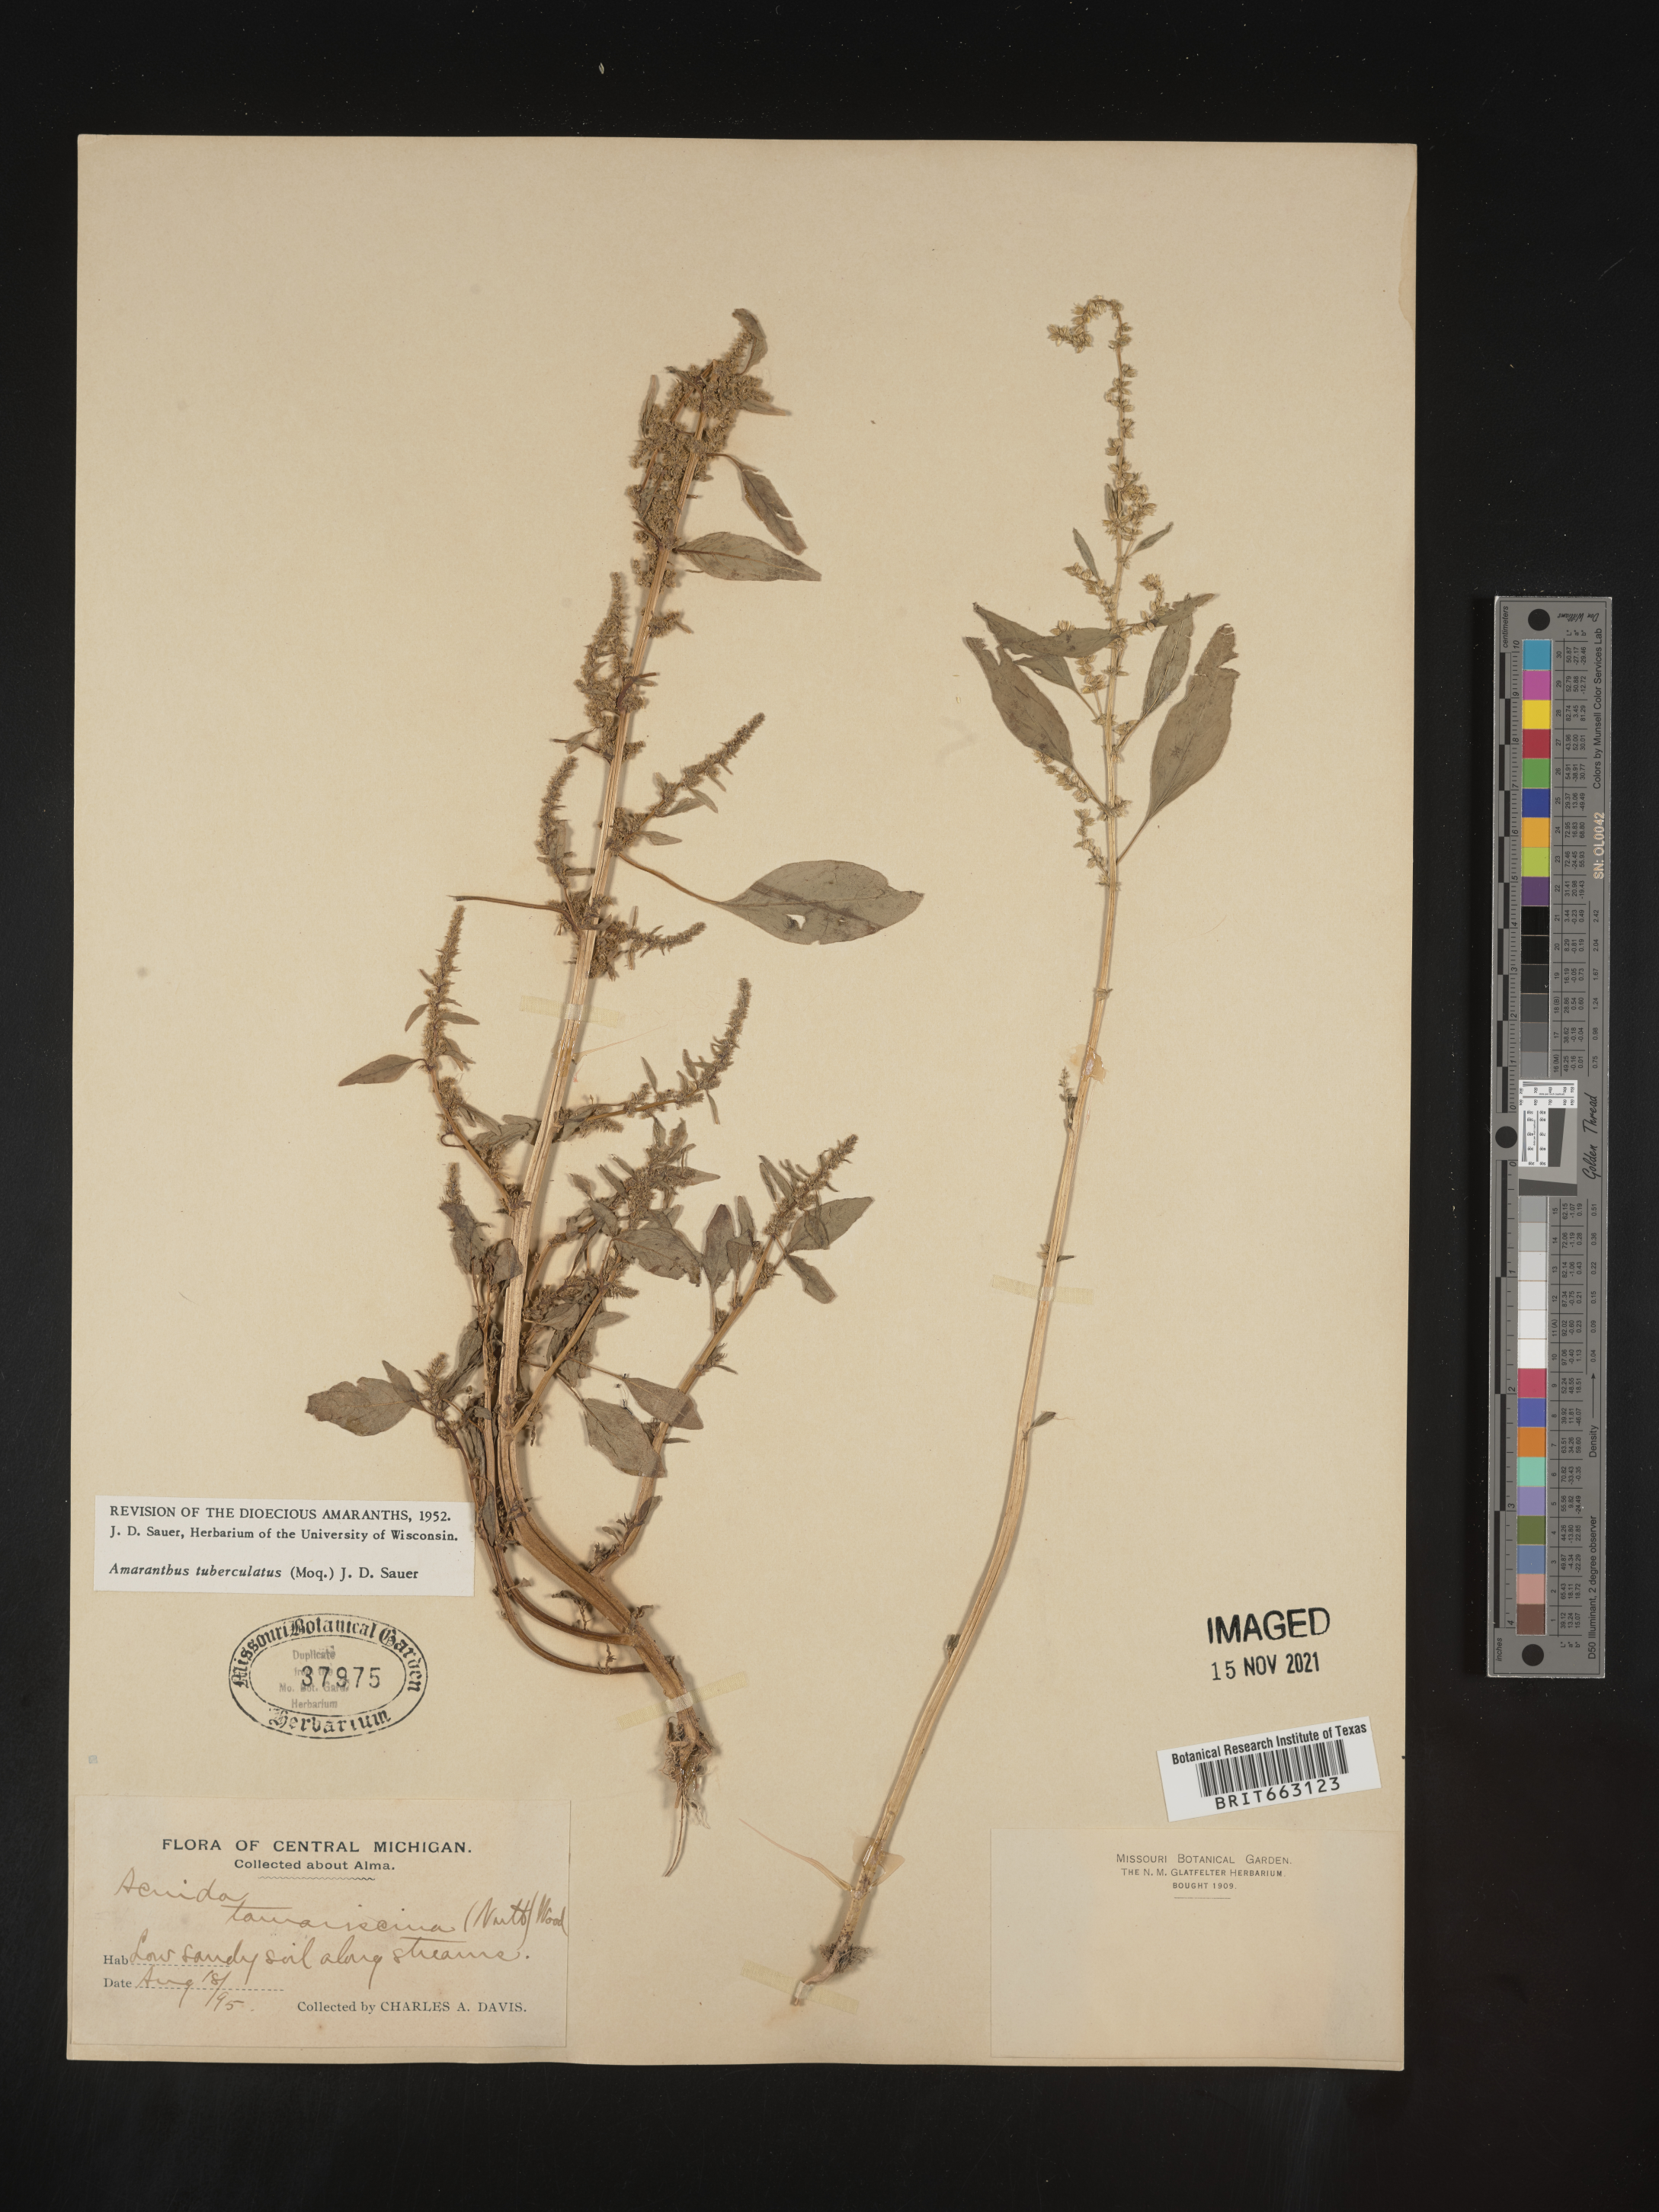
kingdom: Plantae
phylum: Tracheophyta
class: Magnoliopsida
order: Caryophyllales
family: Amaranthaceae
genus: Amaranthus
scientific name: Amaranthus tuberculatus
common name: Rough-fruit amaranth
